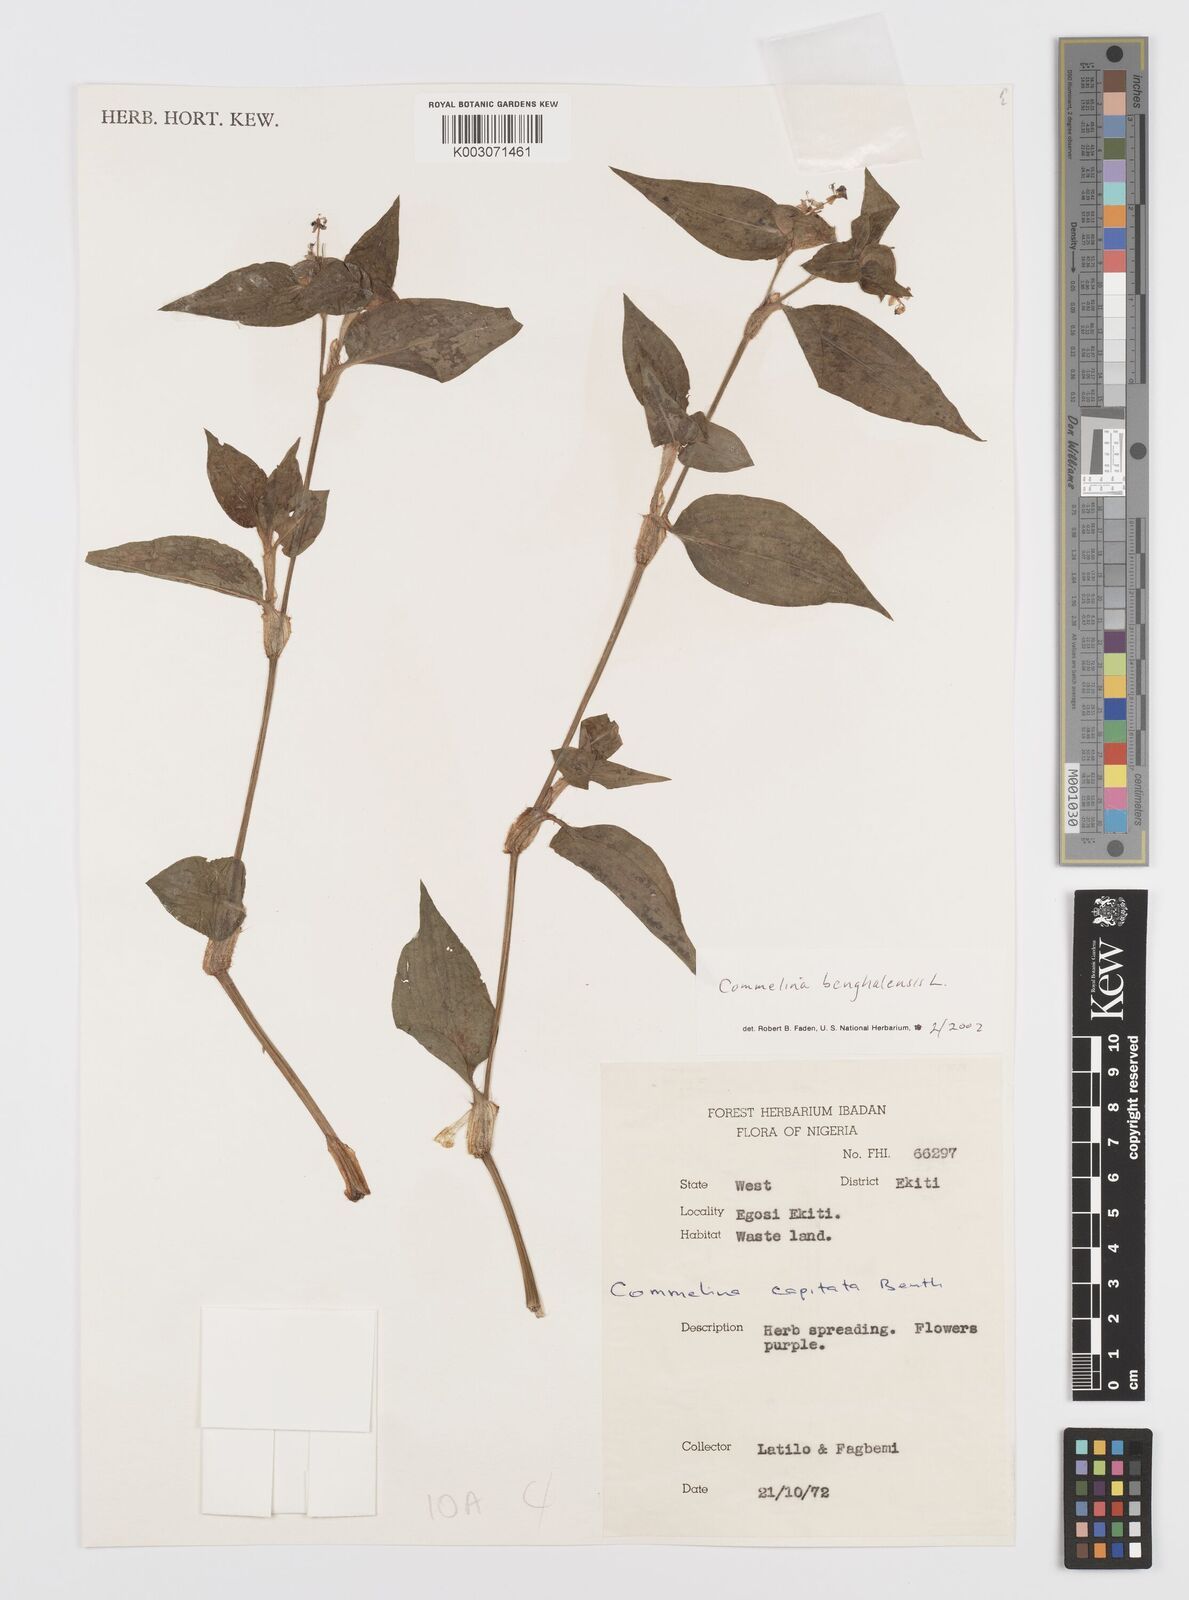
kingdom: Plantae
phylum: Tracheophyta
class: Liliopsida
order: Commelinales
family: Commelinaceae
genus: Commelina
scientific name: Commelina africana
